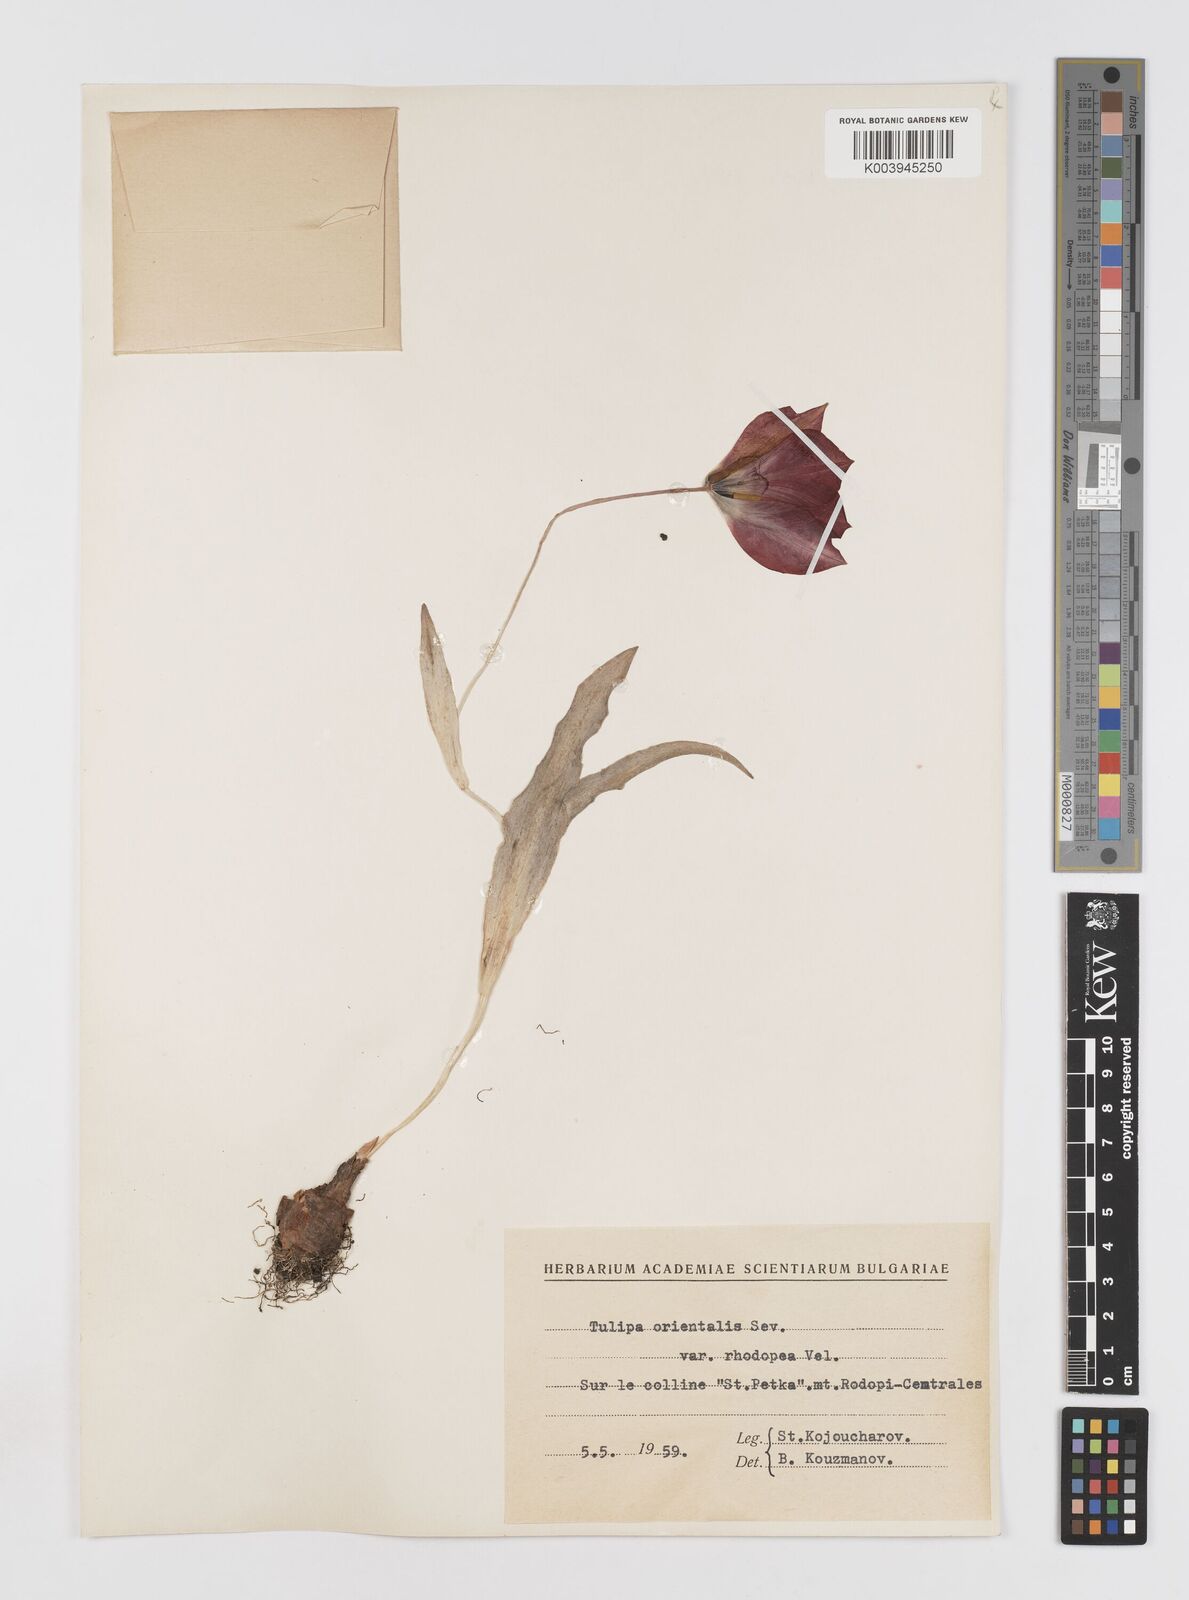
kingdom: Plantae
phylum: Tracheophyta
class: Liliopsida
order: Liliales
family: Liliaceae
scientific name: Liliaceae
